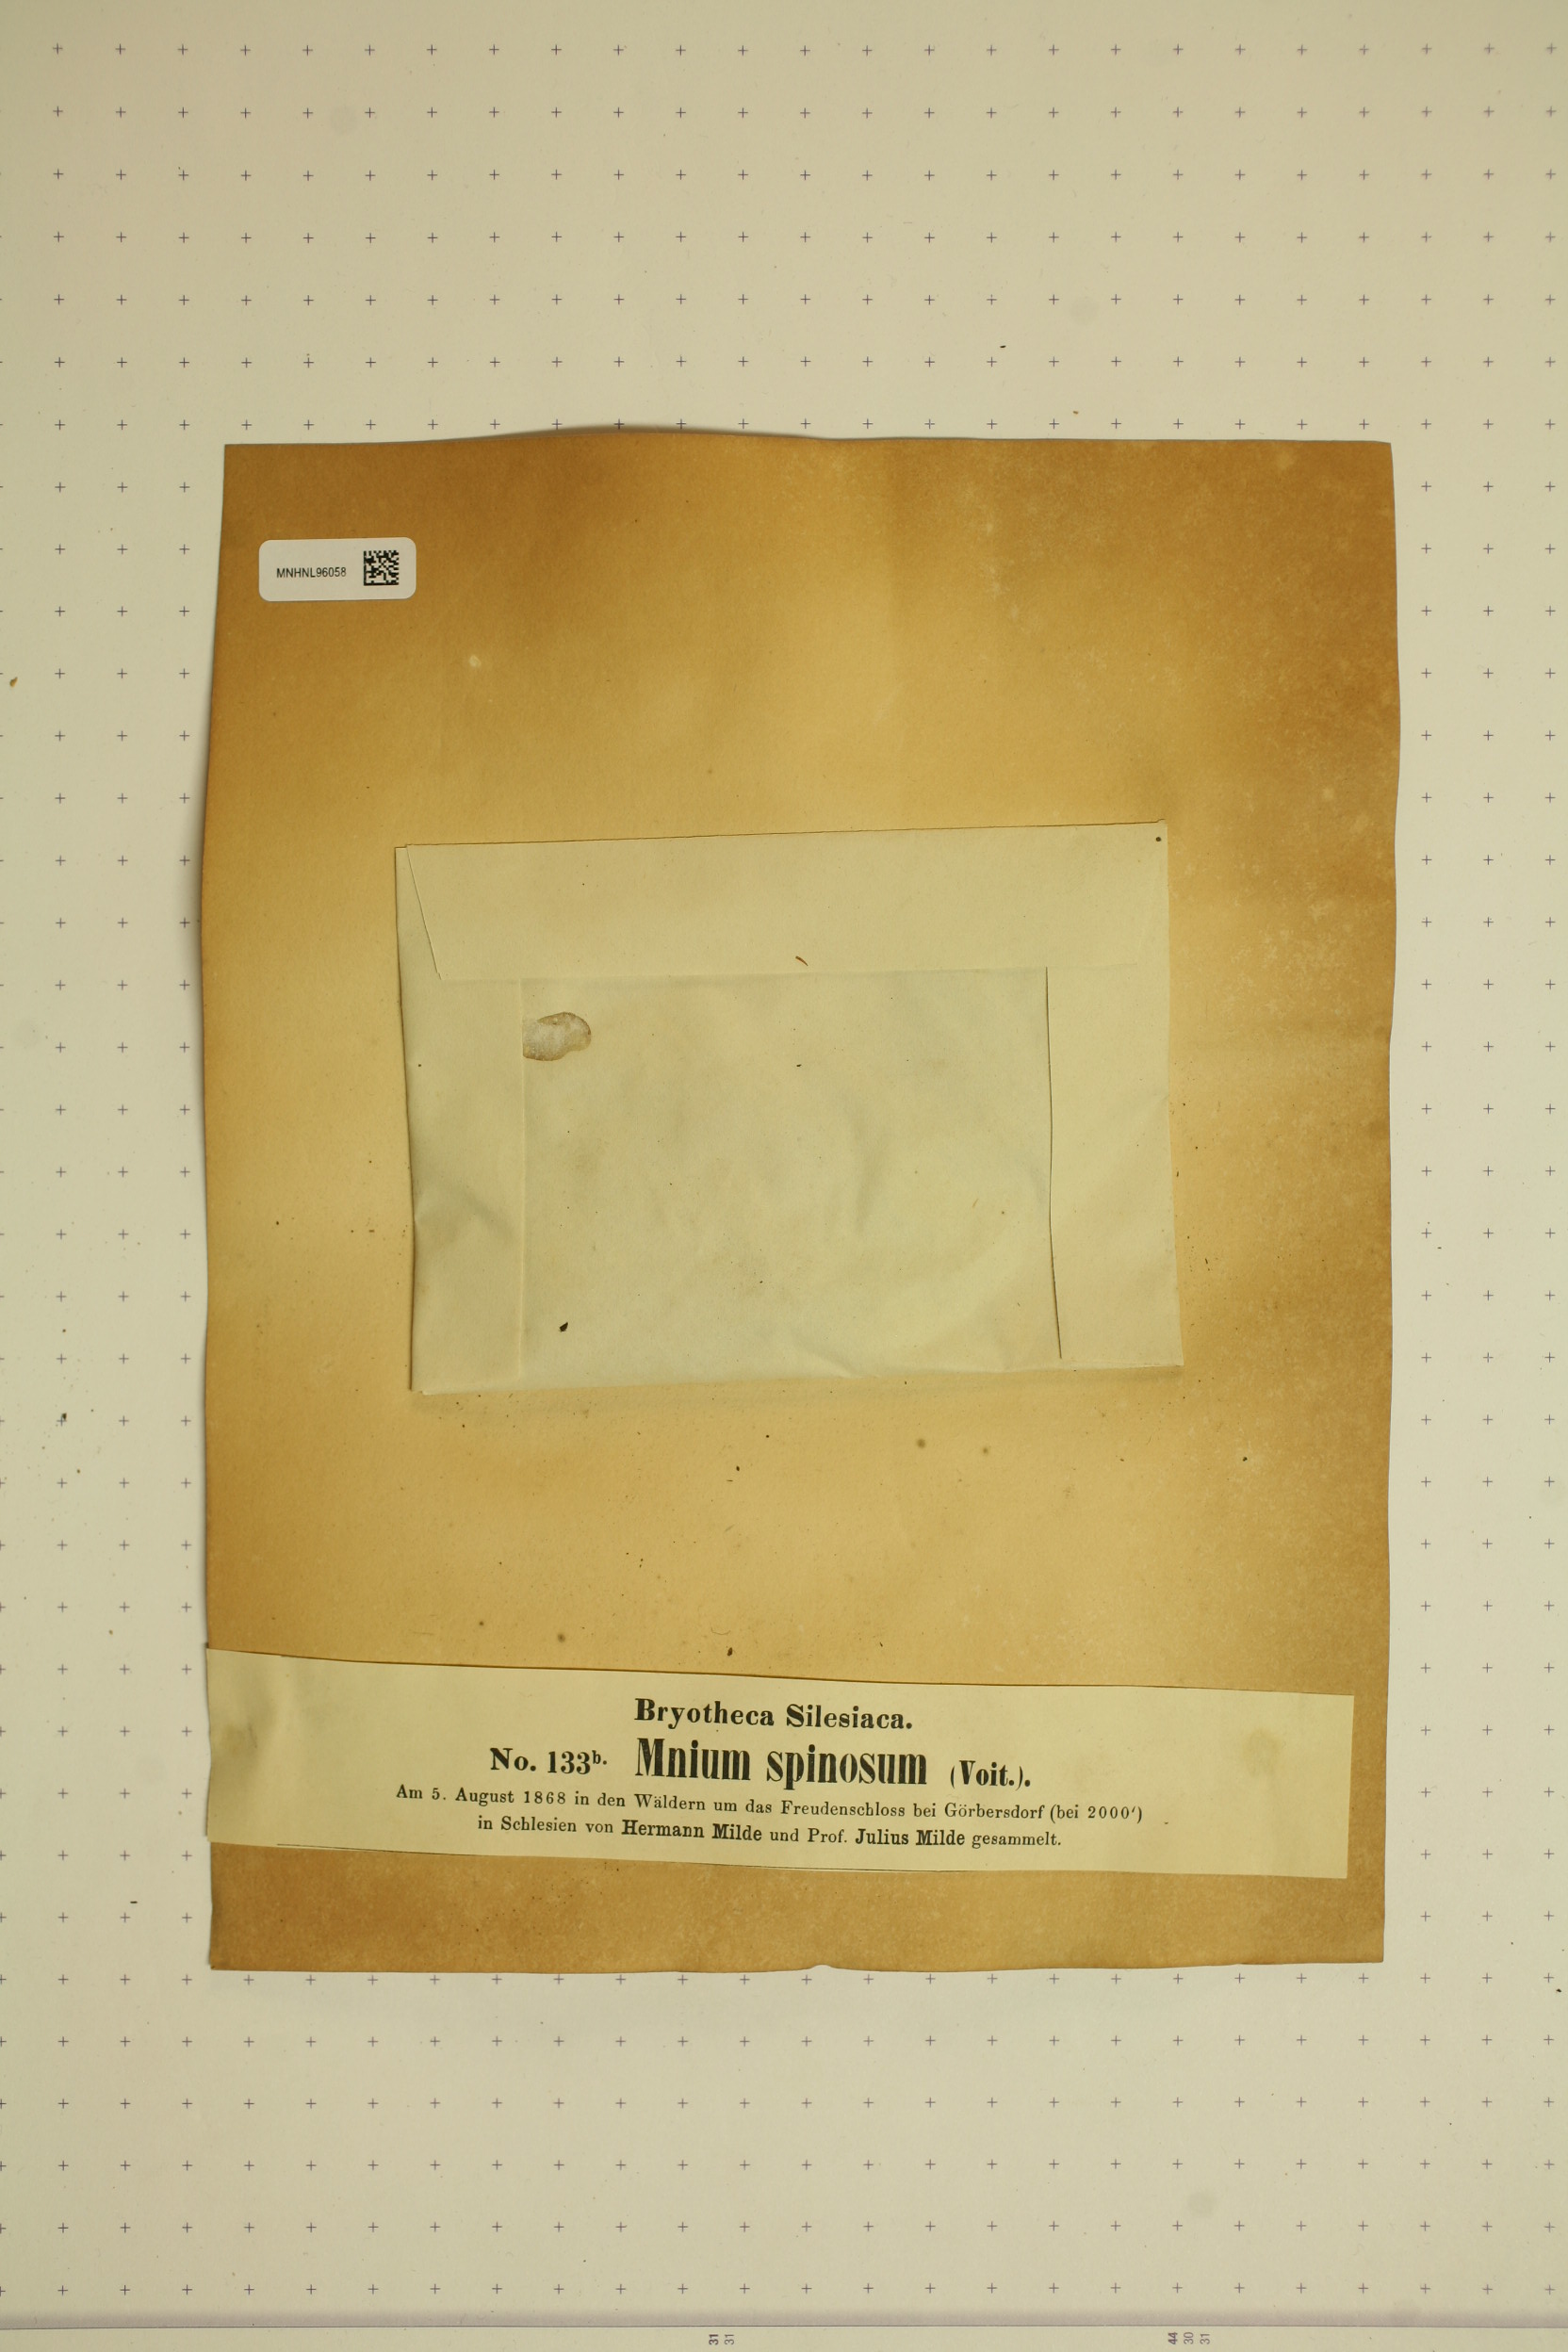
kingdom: Plantae
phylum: Bryophyta
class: Bryopsida
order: Bryales
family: Mniaceae
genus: Mnium
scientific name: Mnium spinosum
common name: Spinose thyme-moss
